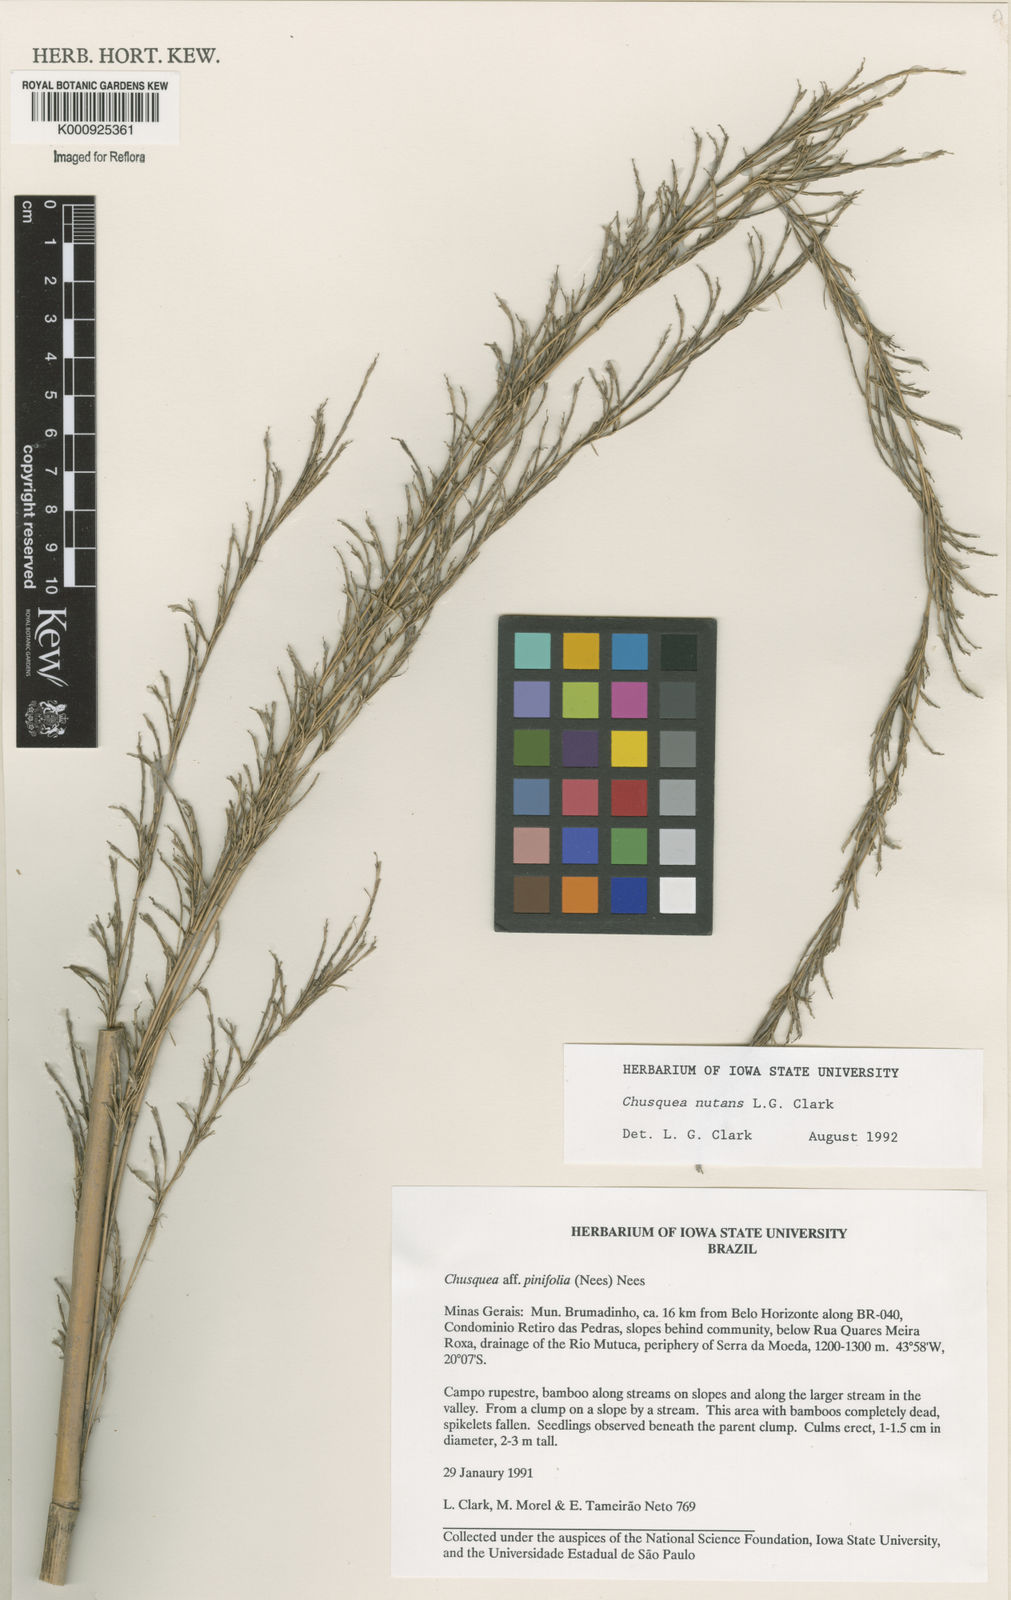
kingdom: Plantae
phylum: Tracheophyta
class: Liliopsida
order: Poales
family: Poaceae
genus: Chusquea
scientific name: Chusquea nutans
